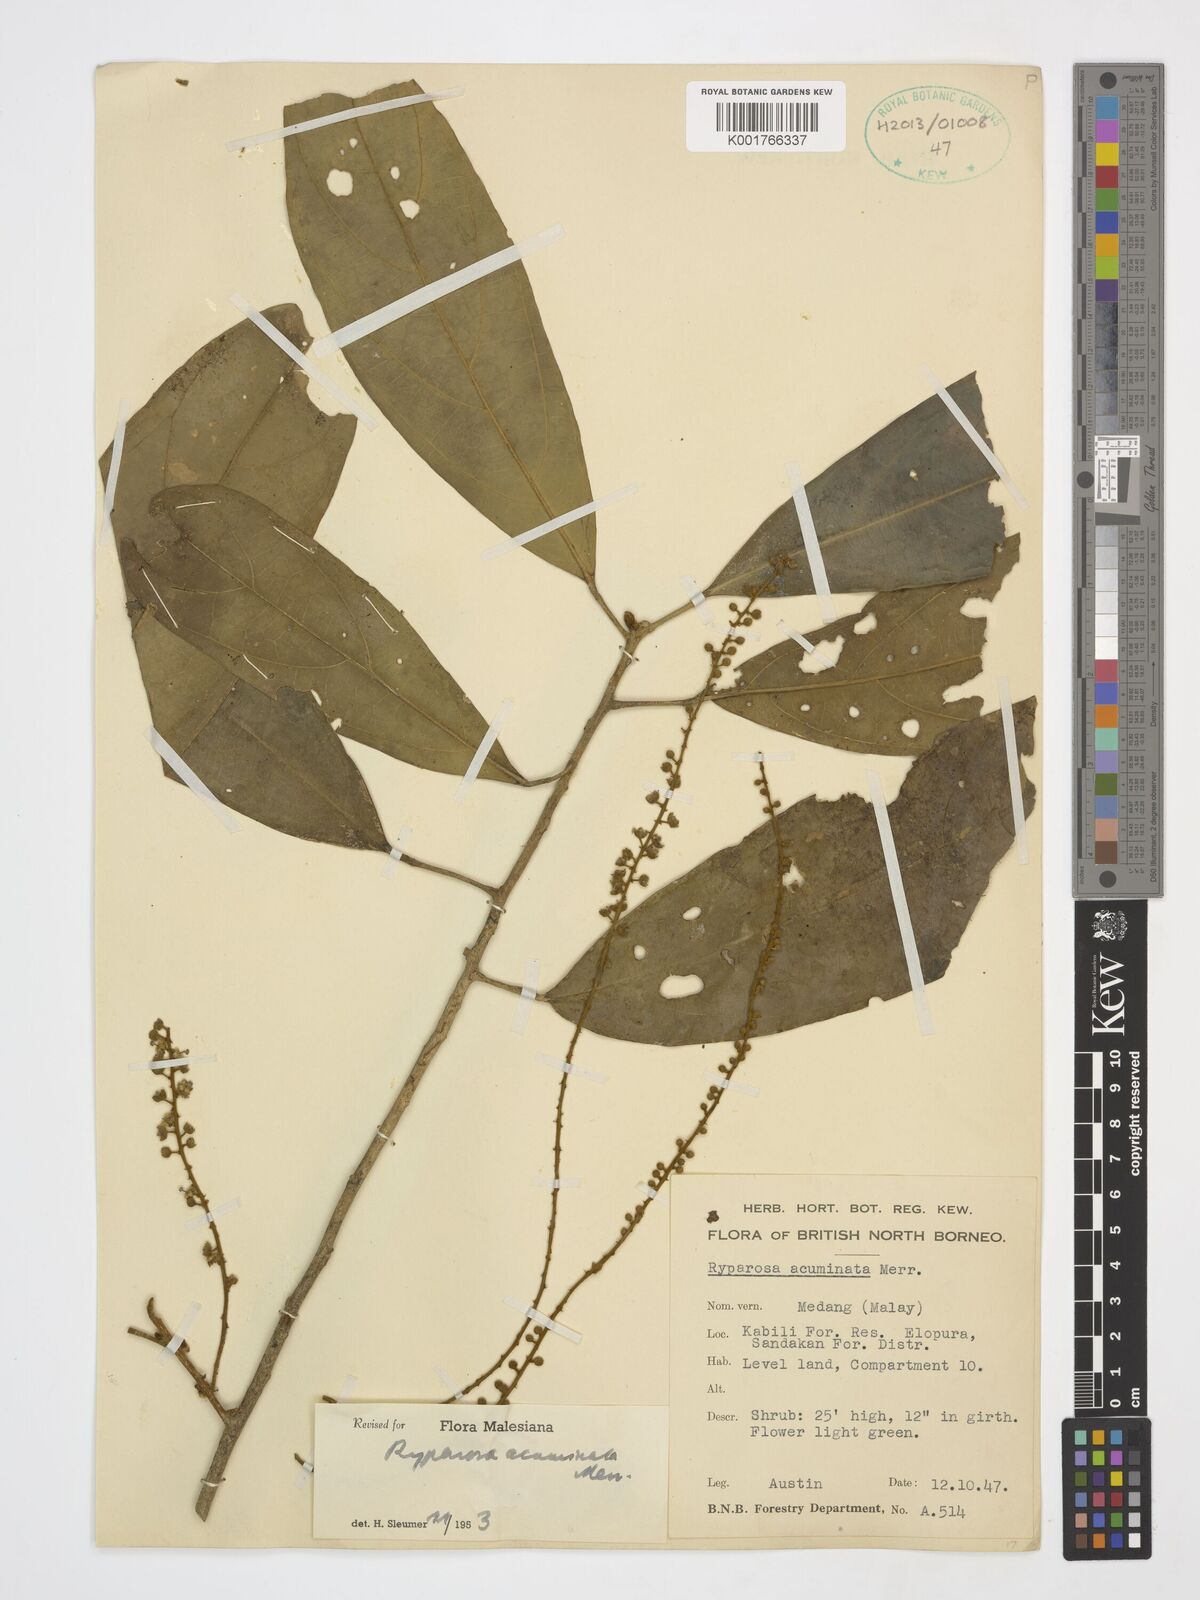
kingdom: Plantae
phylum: Tracheophyta
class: Magnoliopsida
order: Malpighiales
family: Achariaceae
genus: Ryparosa
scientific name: Ryparosa acuminata
